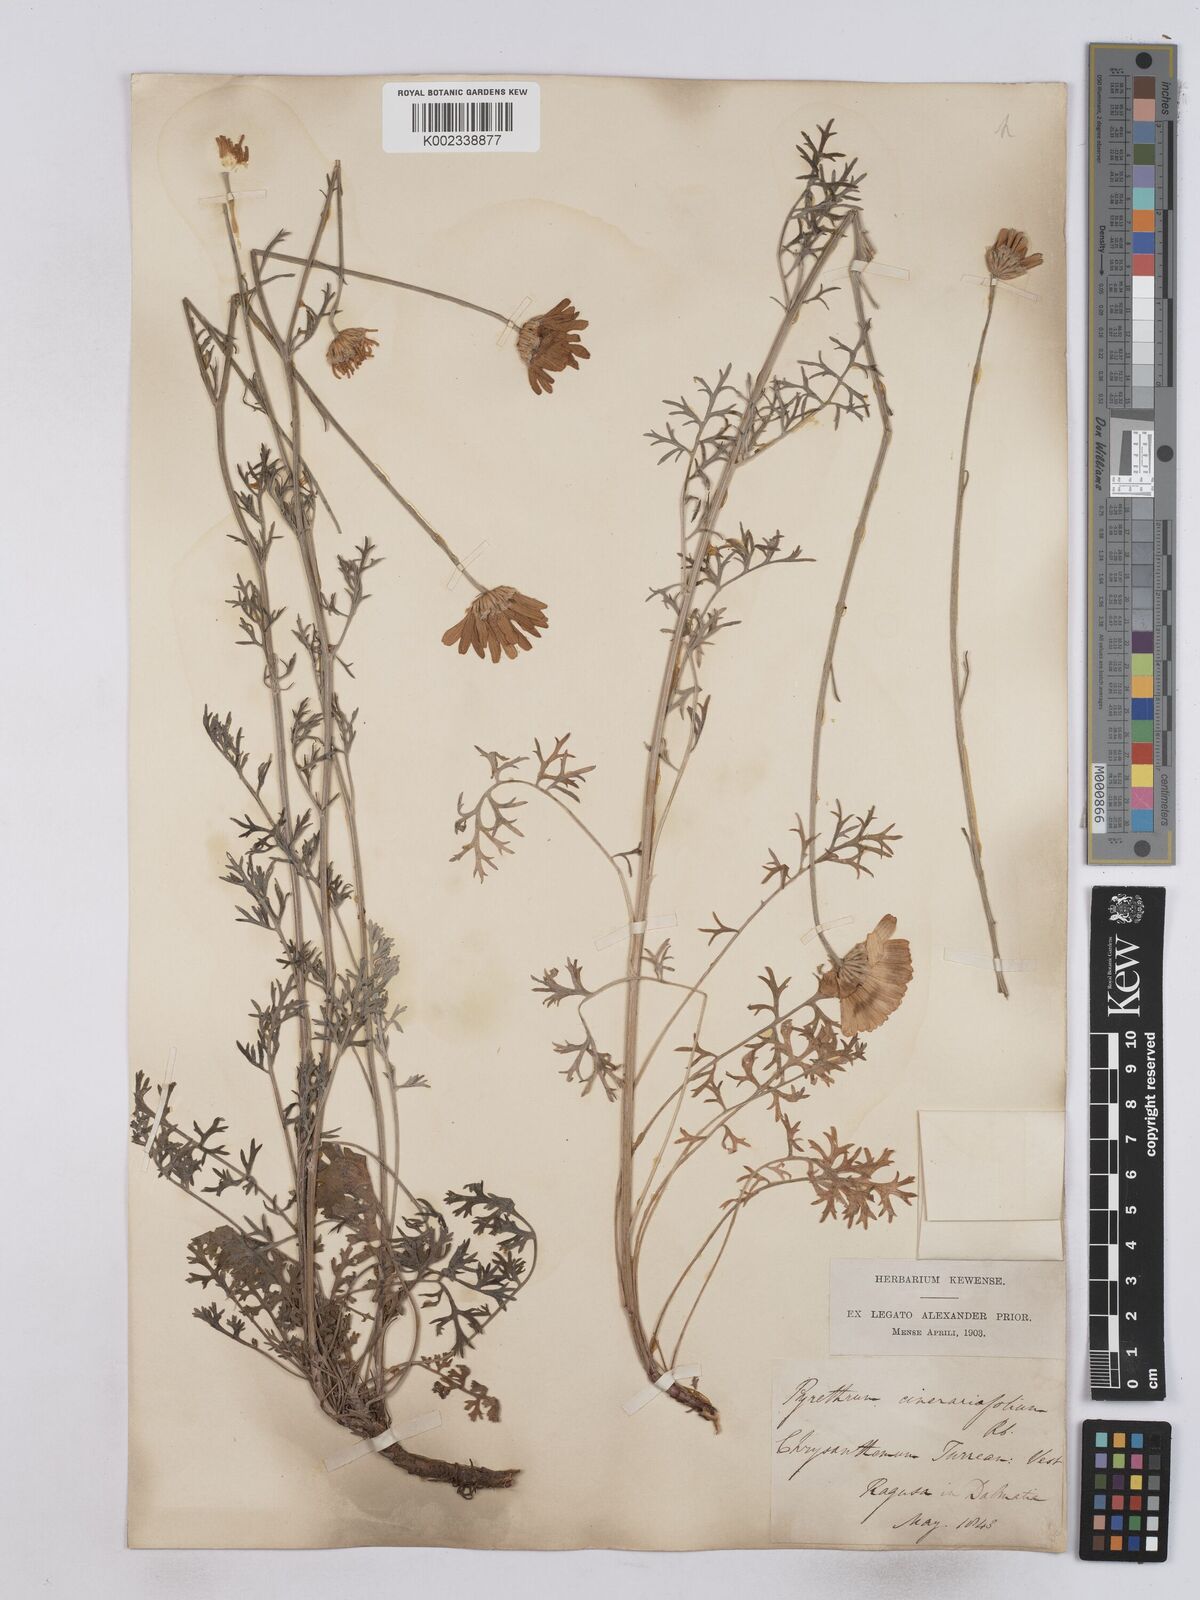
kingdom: Plantae
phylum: Tracheophyta
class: Magnoliopsida
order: Asterales
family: Asteraceae
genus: Tanacetum
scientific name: Tanacetum cinerariifolium
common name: Dalmatian pyrethrum
